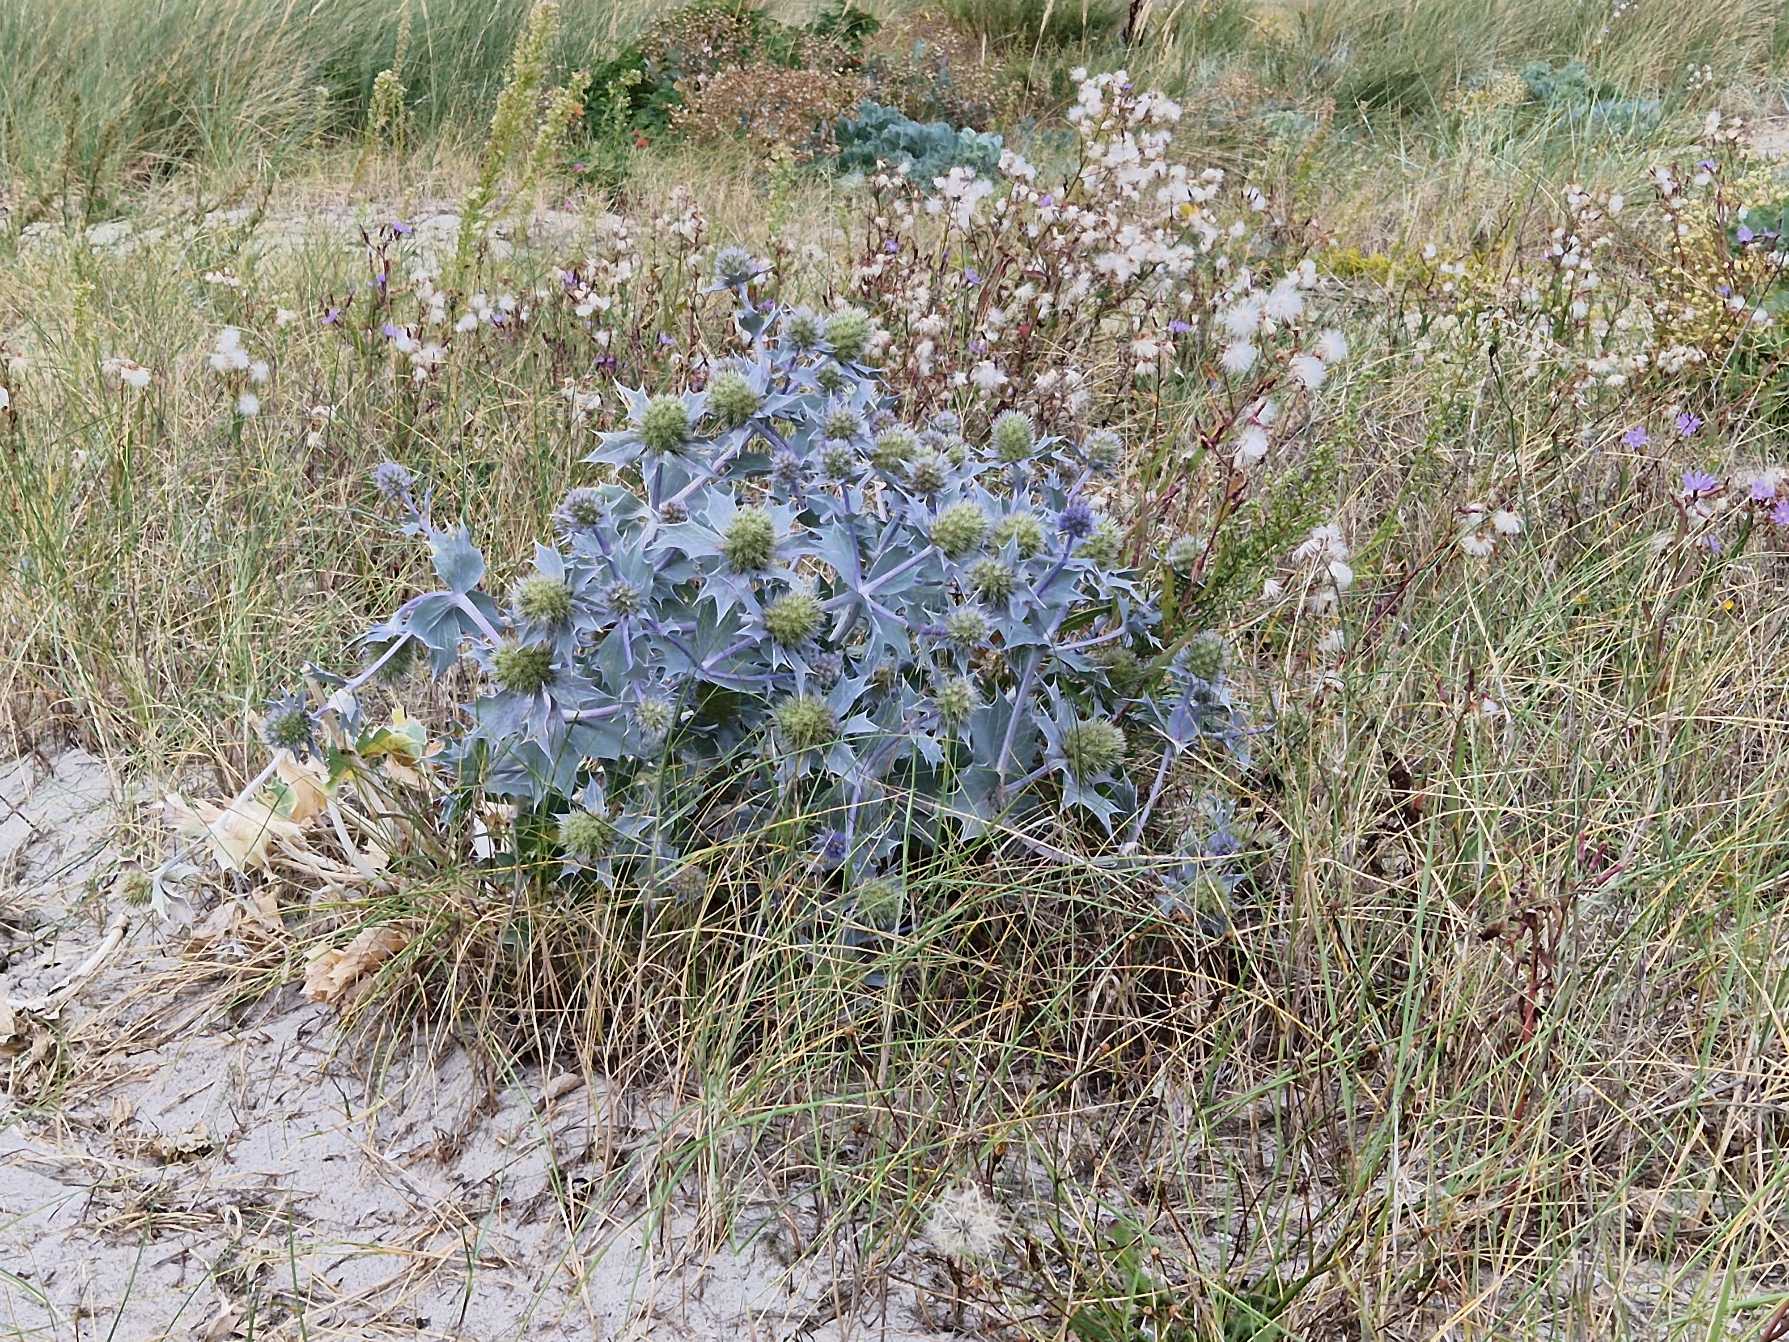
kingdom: Plantae
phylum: Tracheophyta
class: Magnoliopsida
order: Apiales
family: Apiaceae
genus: Eryngium
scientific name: Eryngium maritimum
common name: Strand-mandstro
